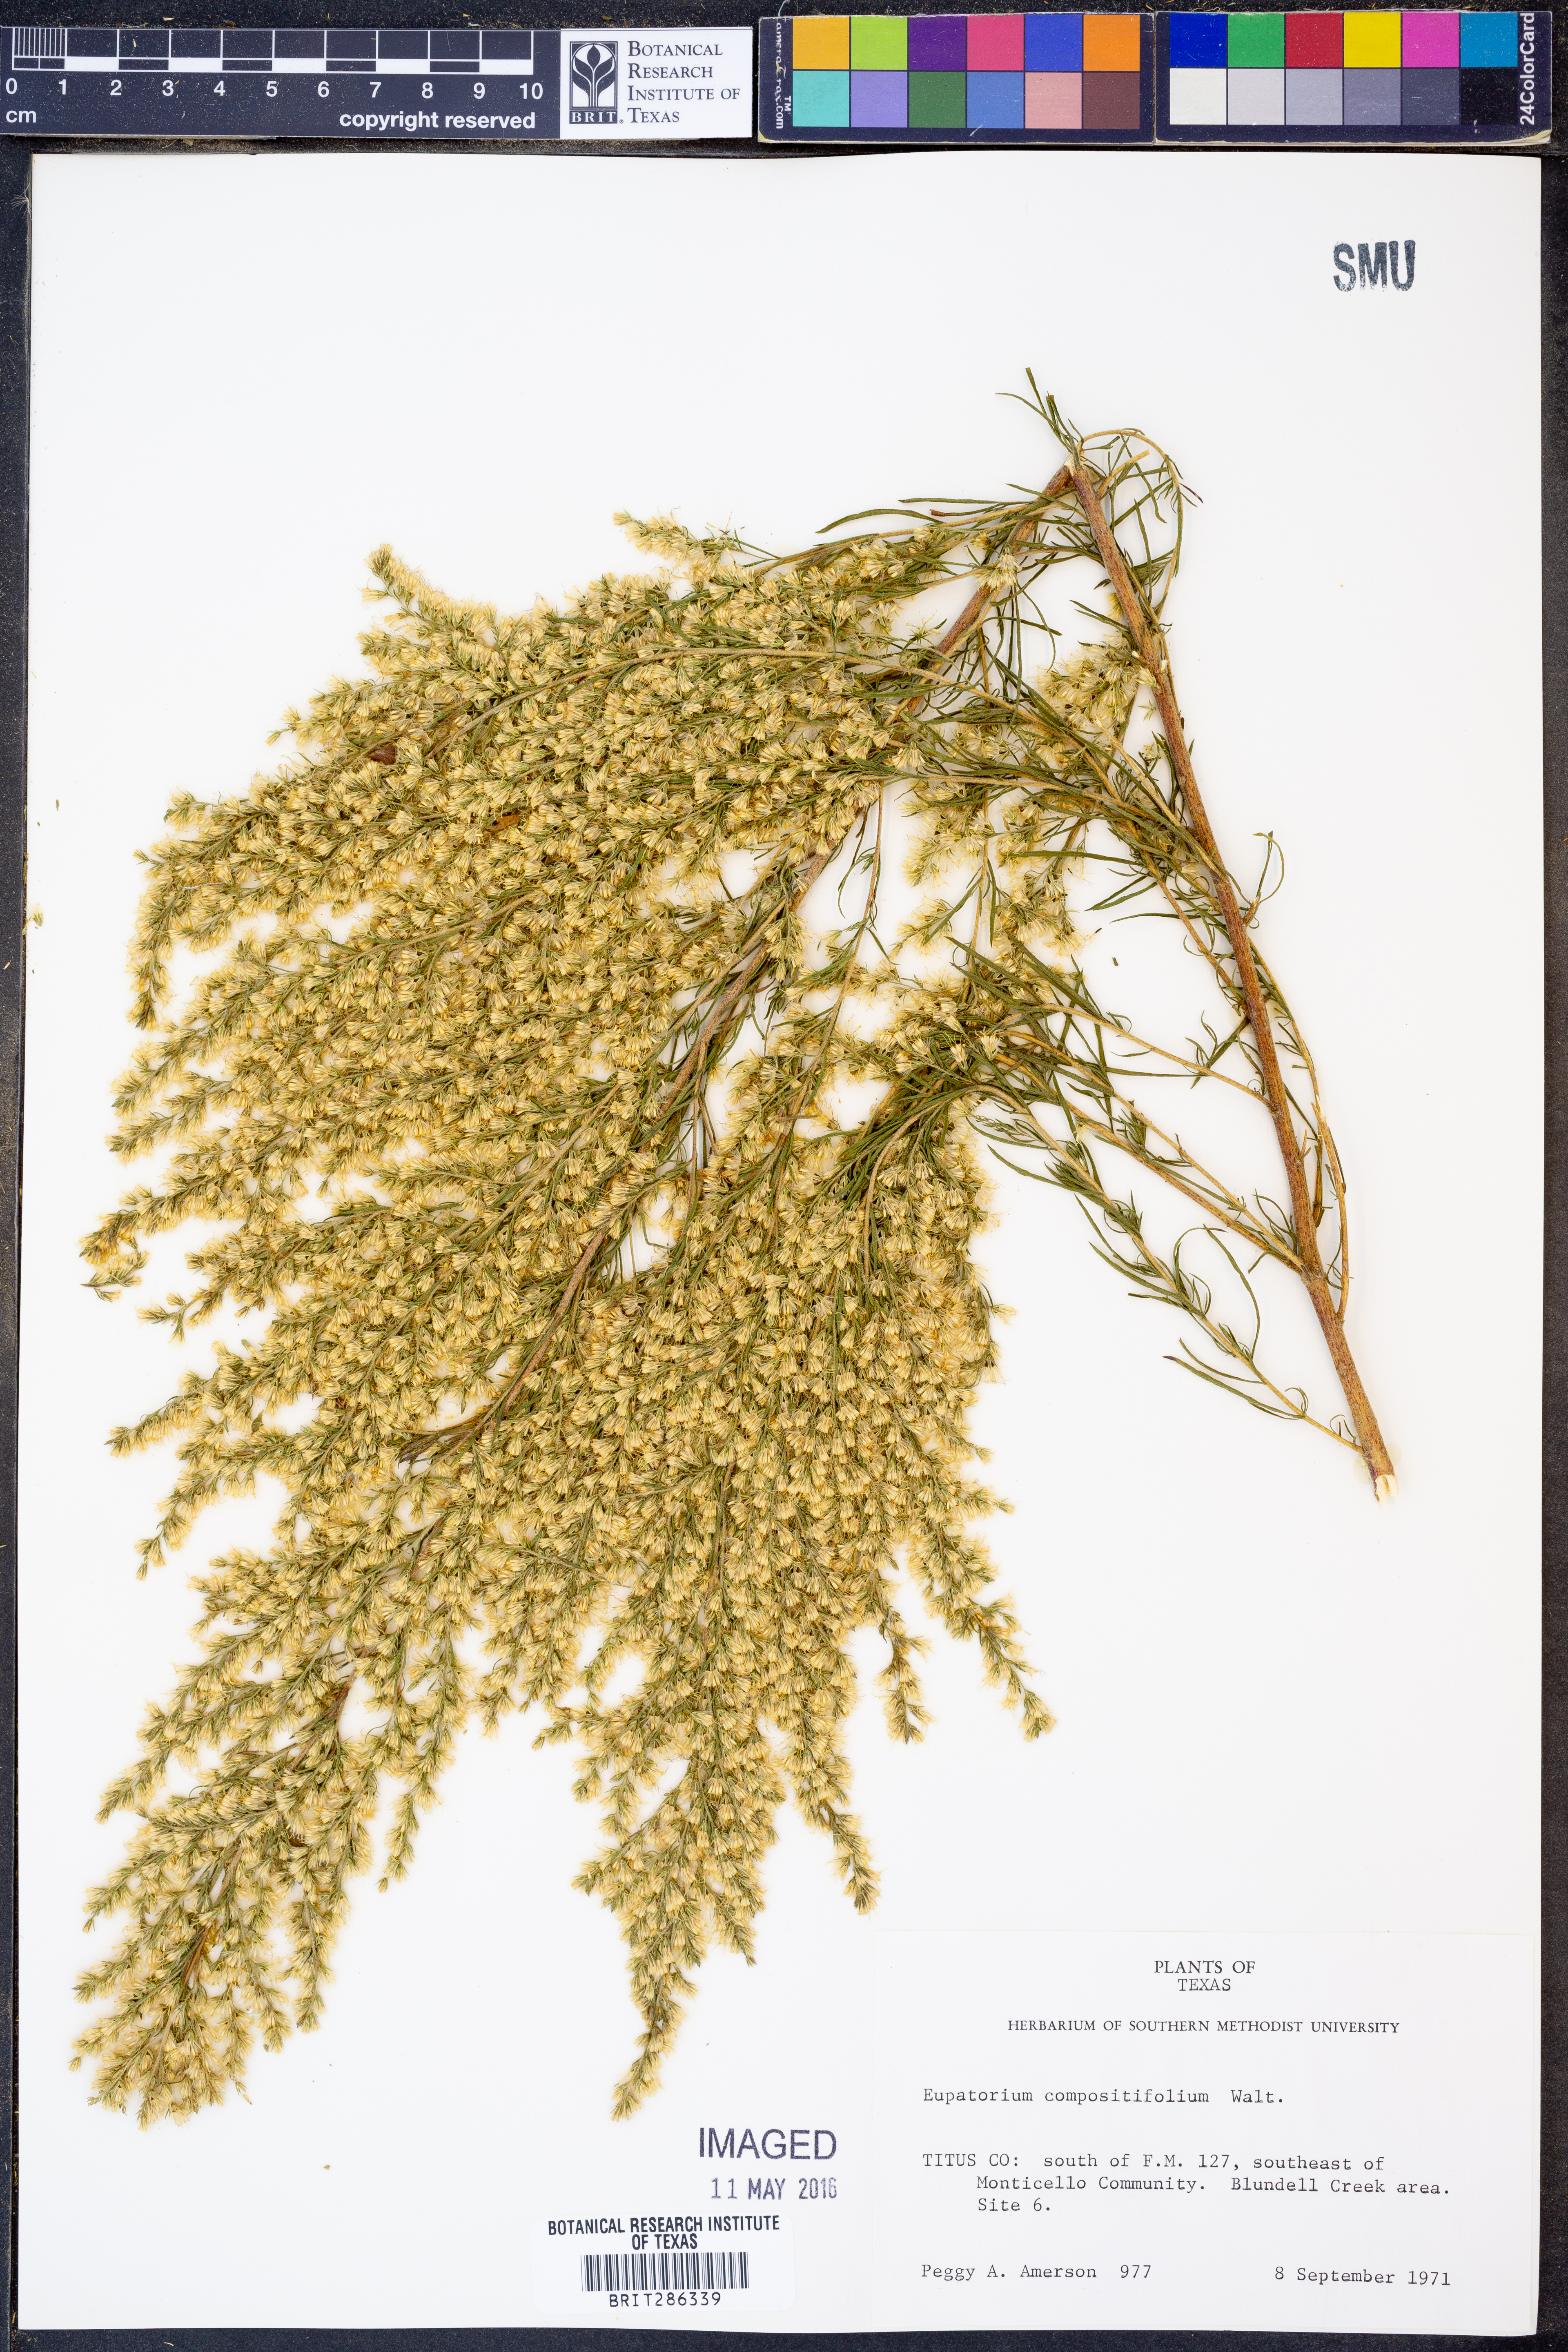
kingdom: Plantae
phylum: Tracheophyta
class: Magnoliopsida
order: Asterales
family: Asteraceae
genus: Eupatorium
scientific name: Eupatorium compositifolium
